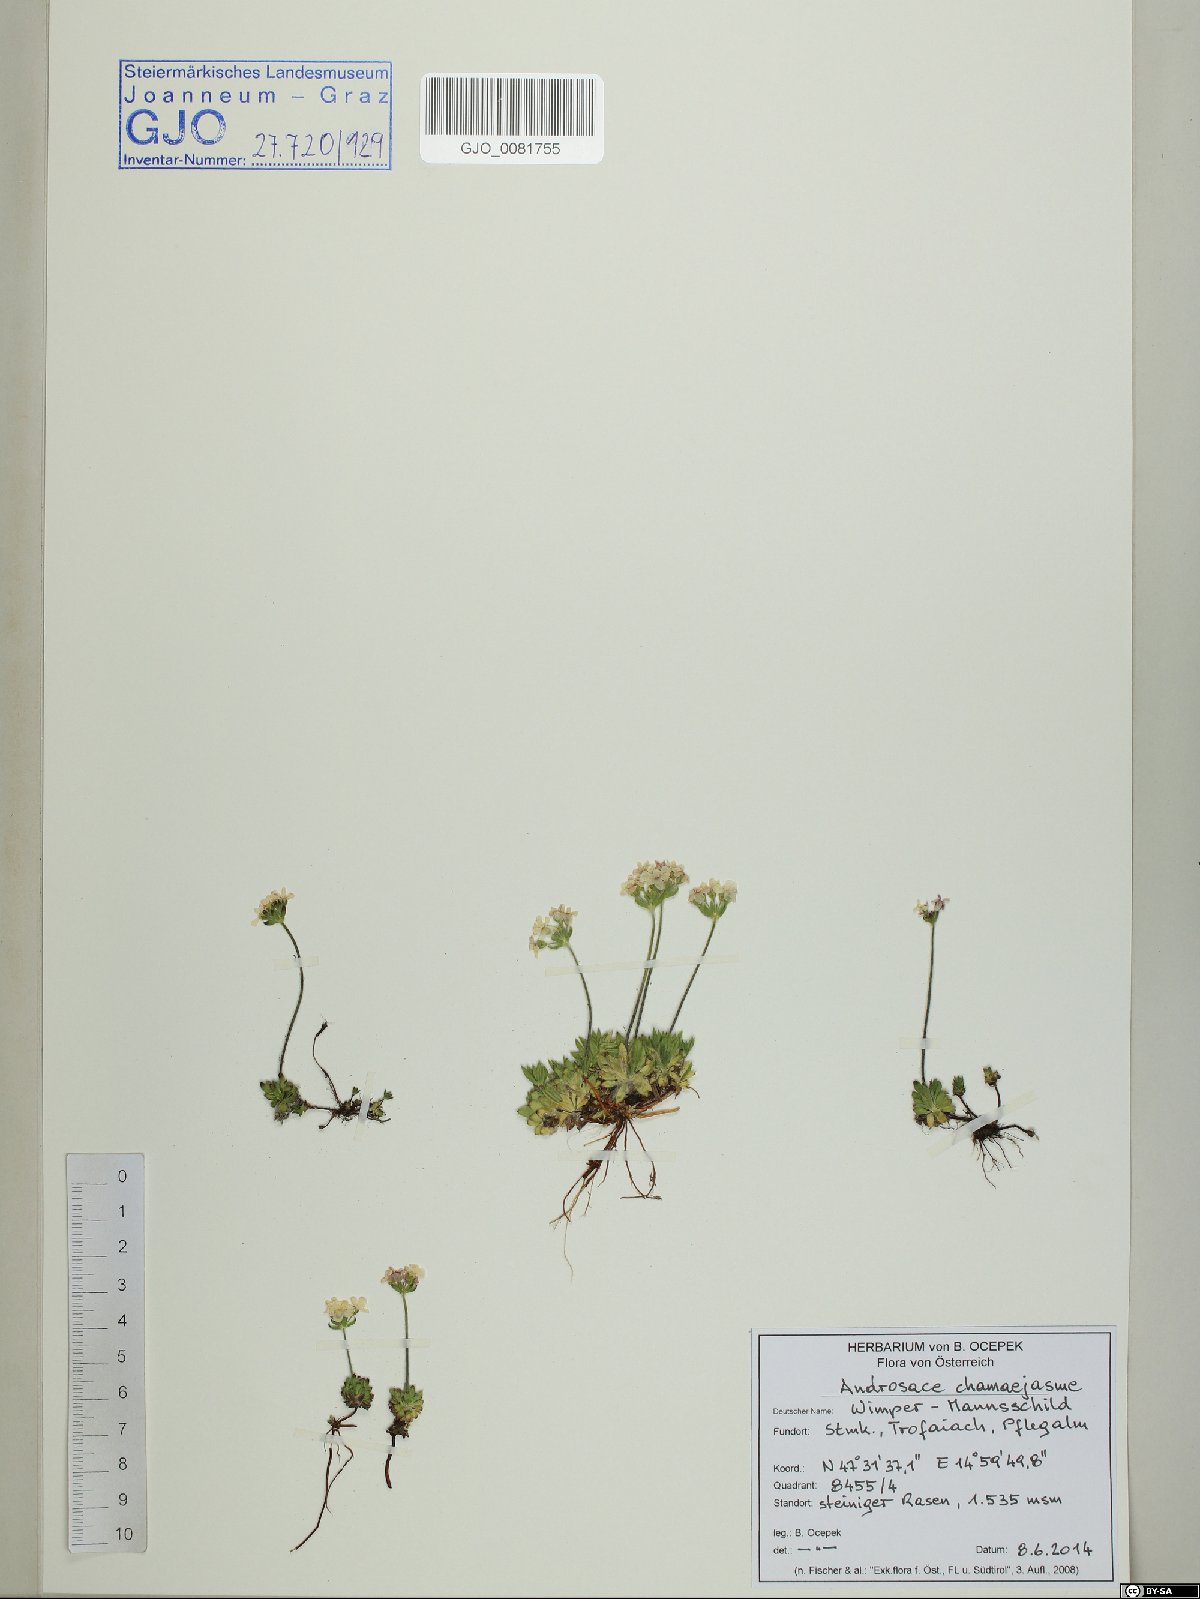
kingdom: Plantae
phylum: Tracheophyta
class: Magnoliopsida
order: Ericales
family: Primulaceae
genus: Androsace
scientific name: Androsace chamaejasme
